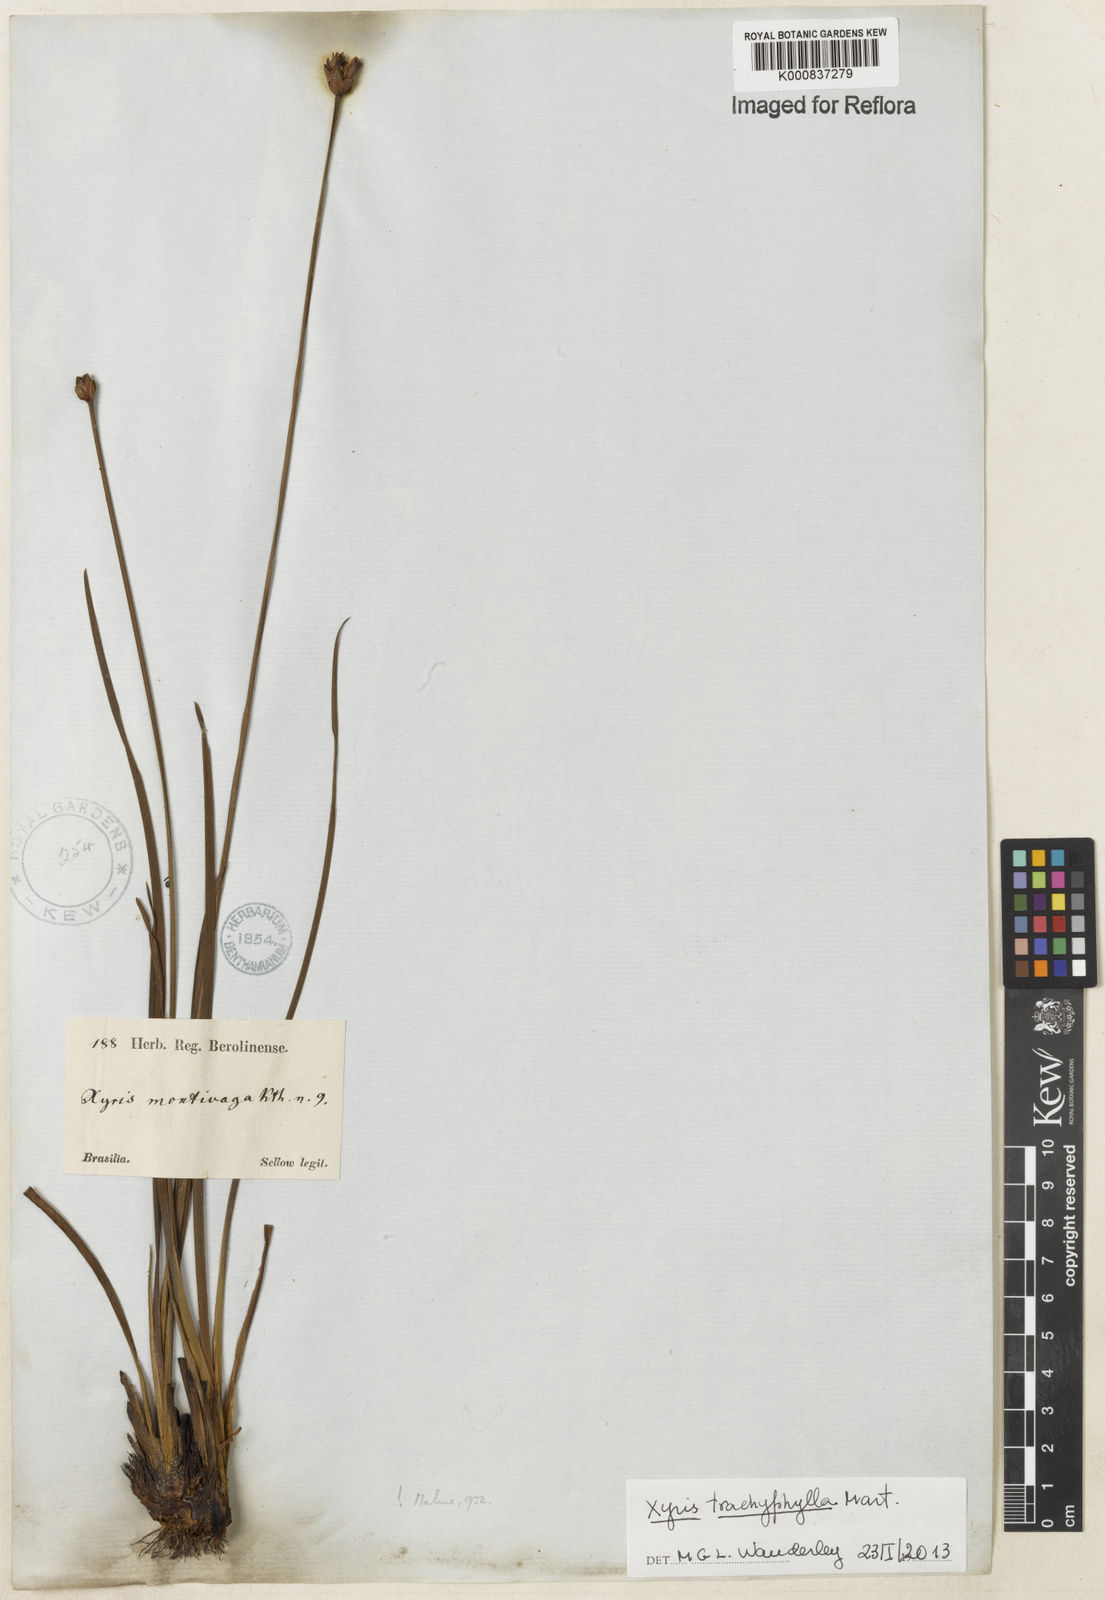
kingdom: Plantae
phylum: Tracheophyta
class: Liliopsida
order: Poales
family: Xyridaceae
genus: Xyris
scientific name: Xyris trachyphylla
